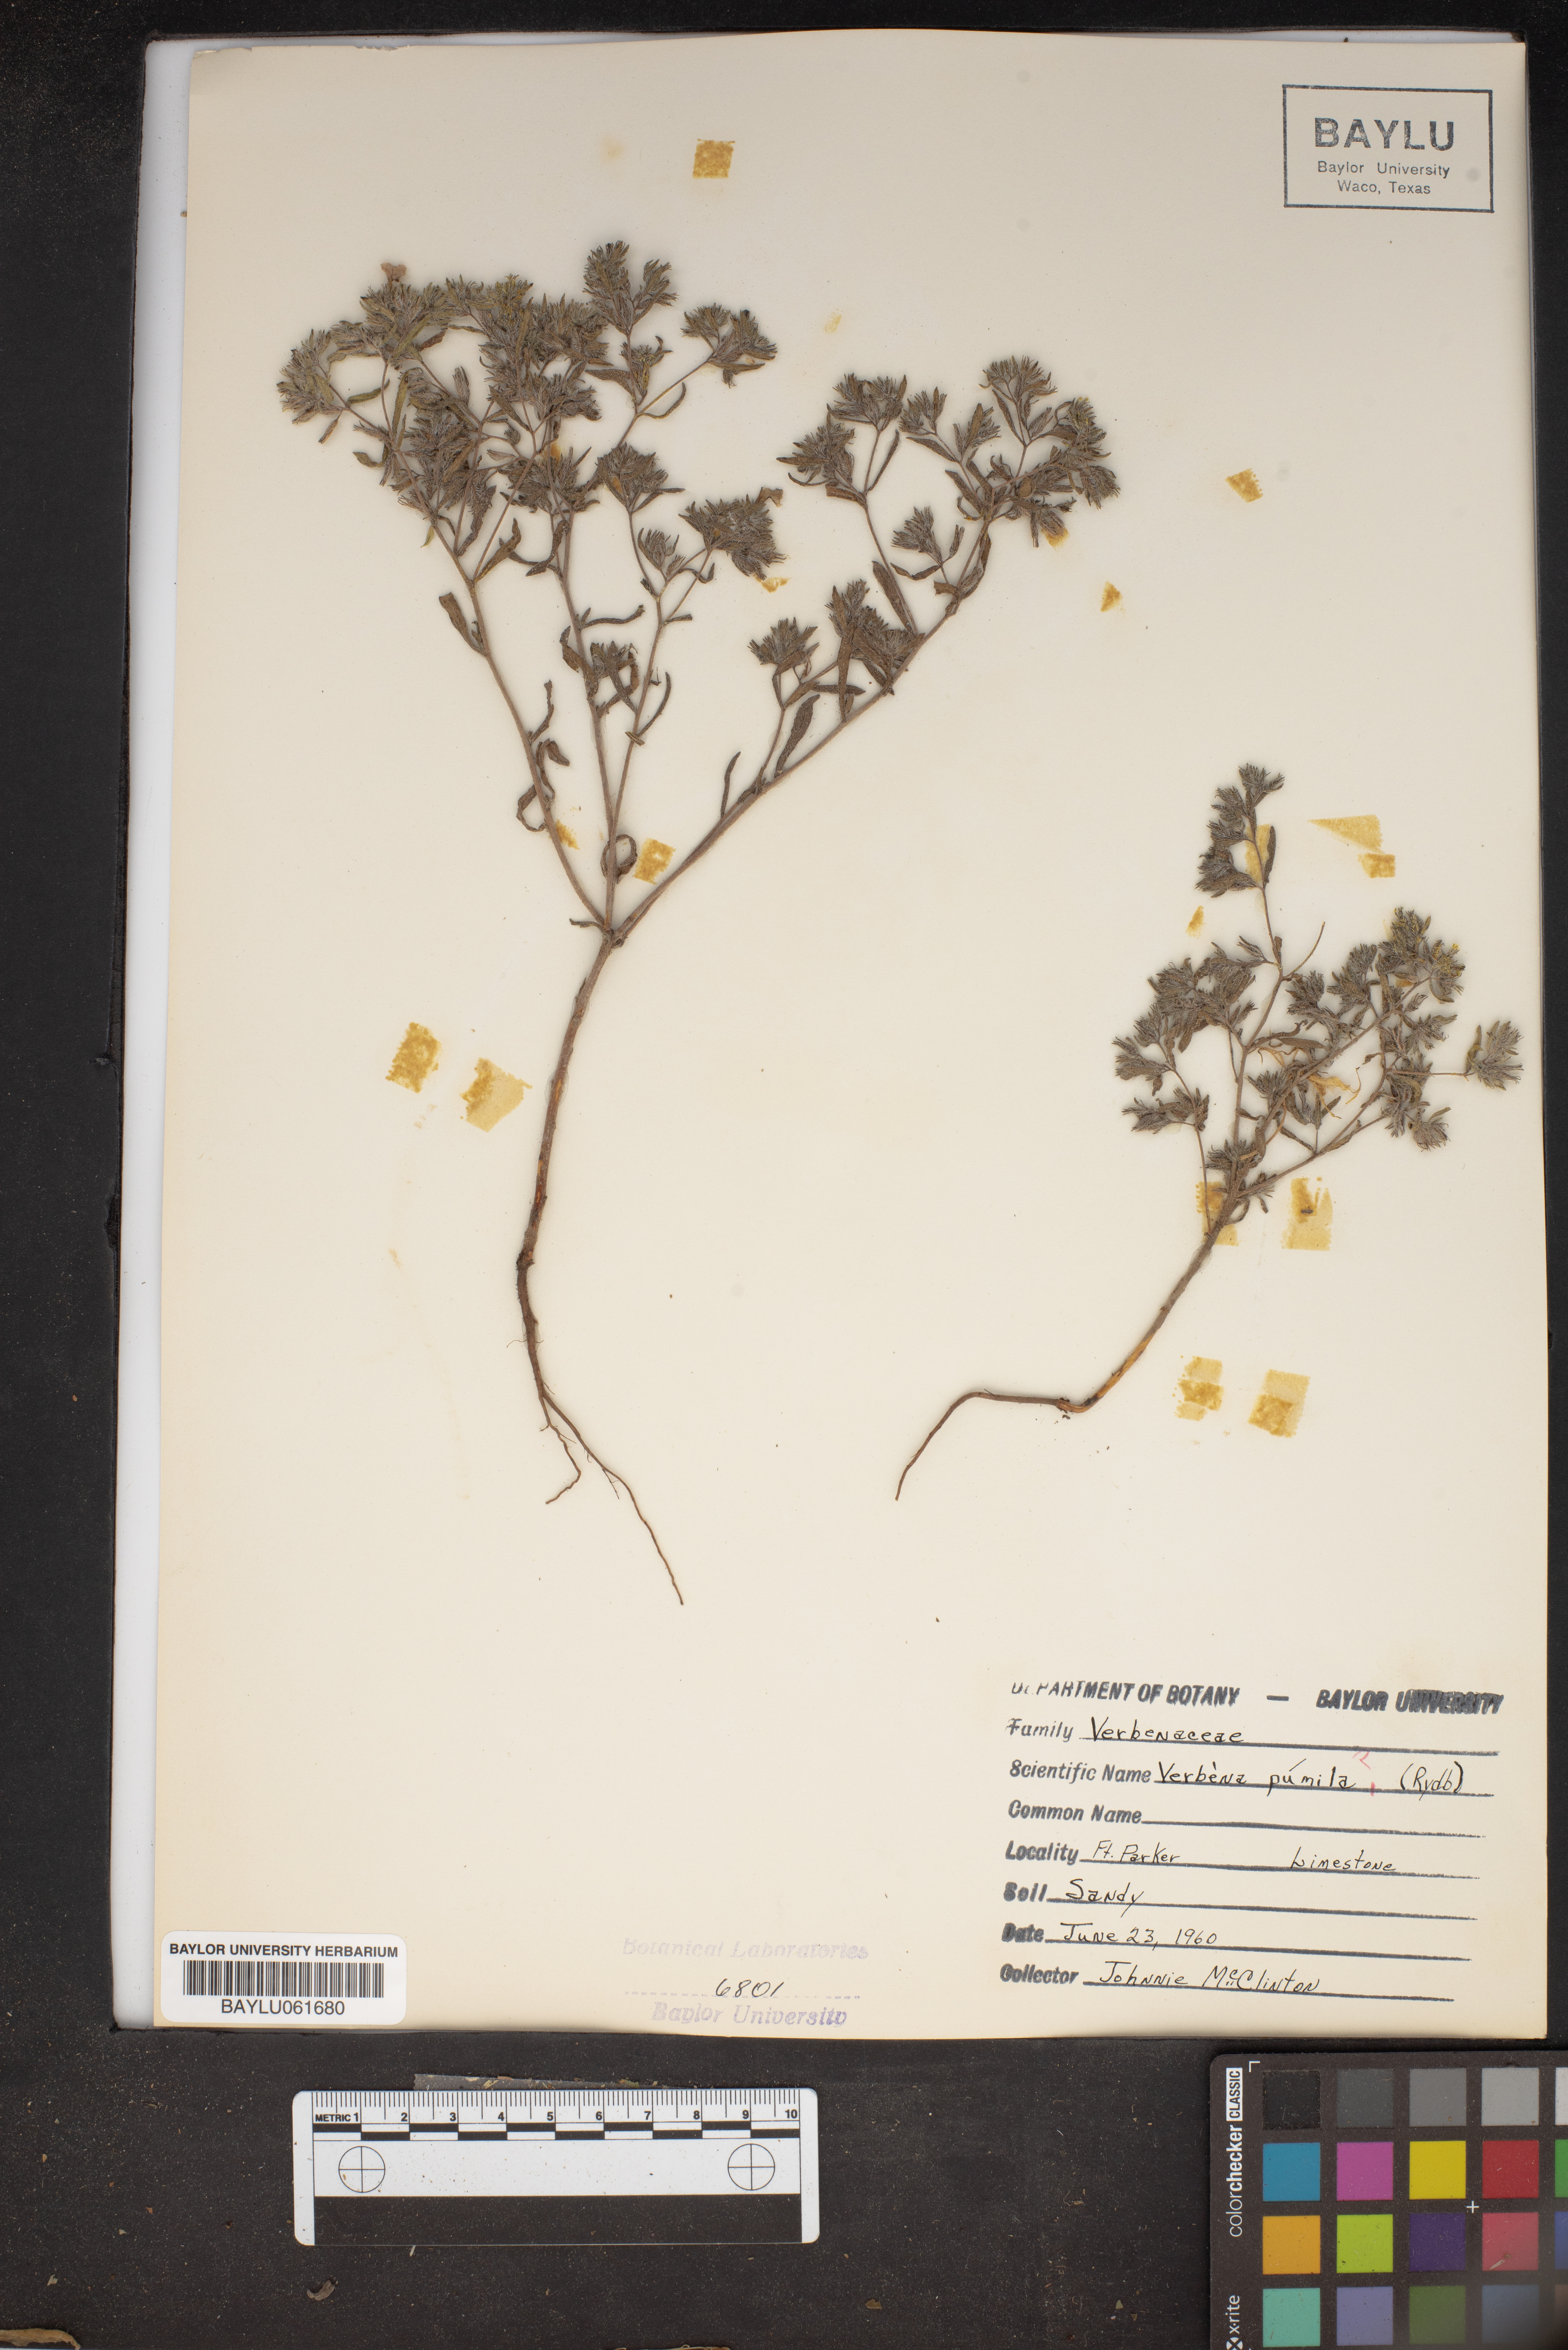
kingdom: Plantae
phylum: Tracheophyta
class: Magnoliopsida
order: Lamiales
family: Verbenaceae
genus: Verbena
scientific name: Verbena pumila
